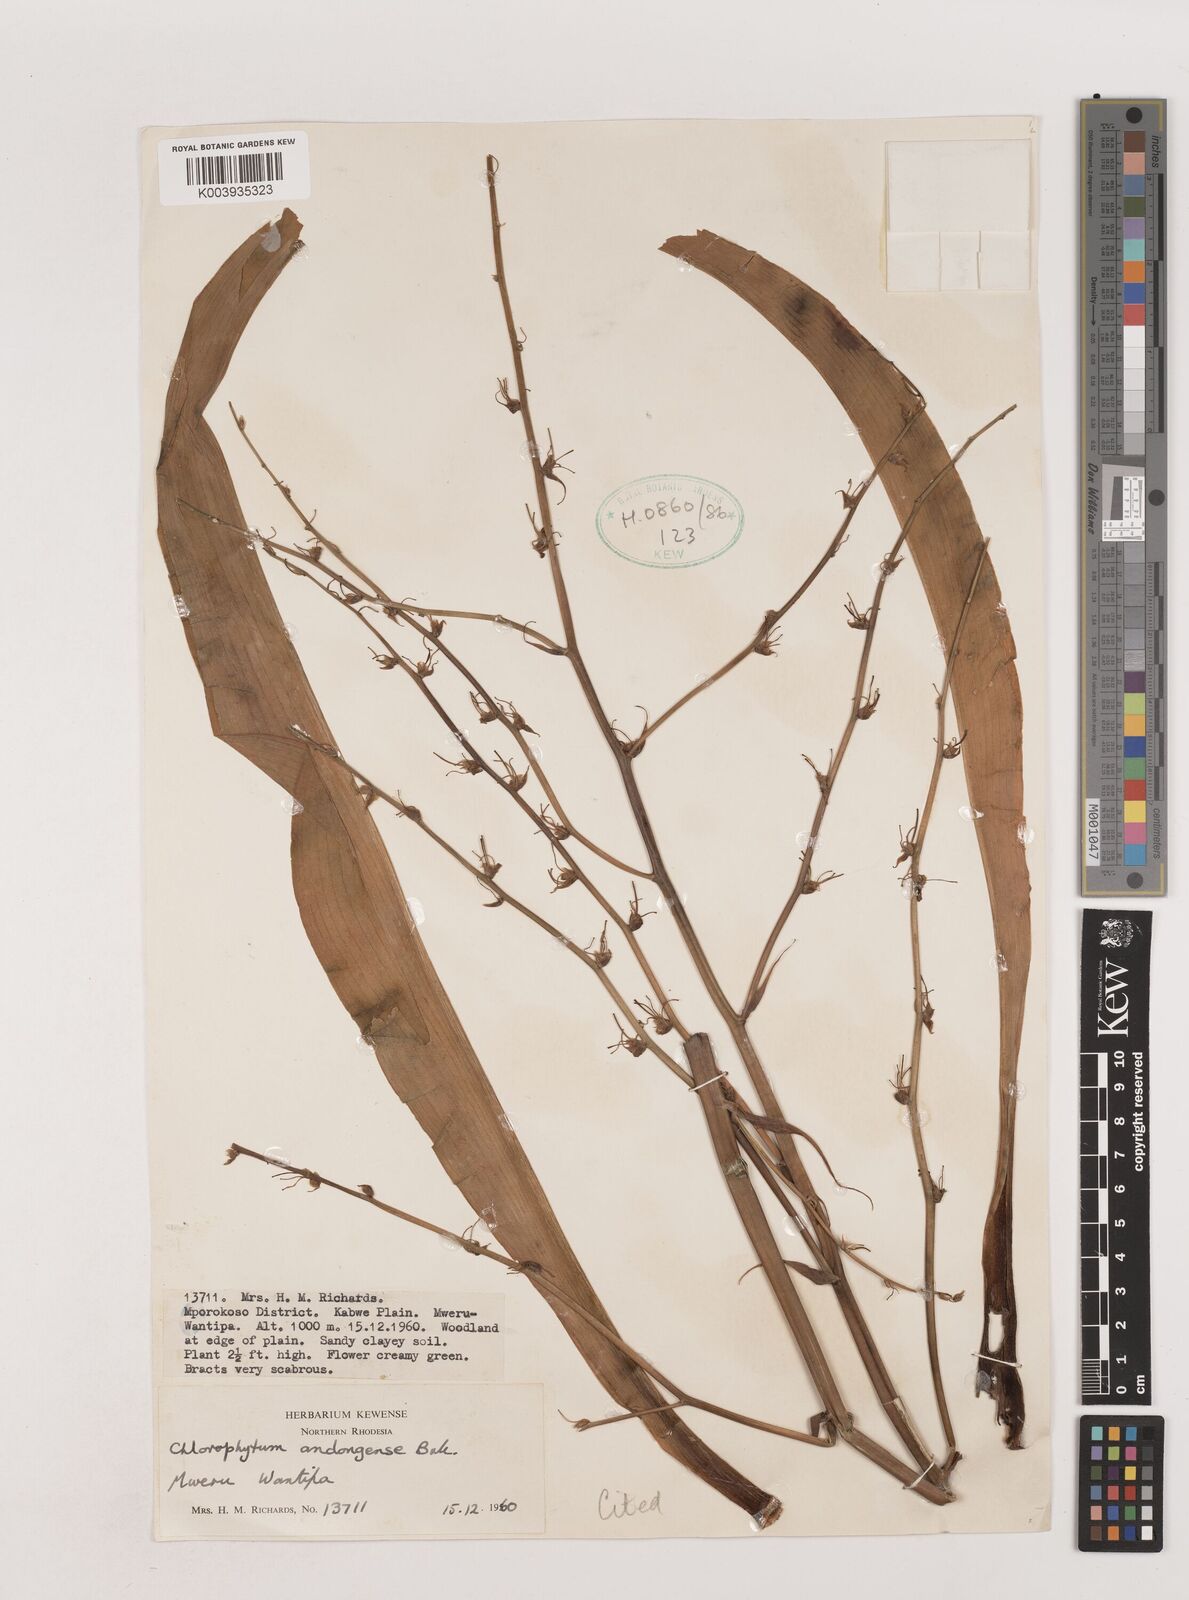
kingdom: Plantae
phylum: Tracheophyta
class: Liliopsida
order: Asparagales
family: Asparagaceae
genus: Chlorophytum
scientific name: Chlorophytum andongense
